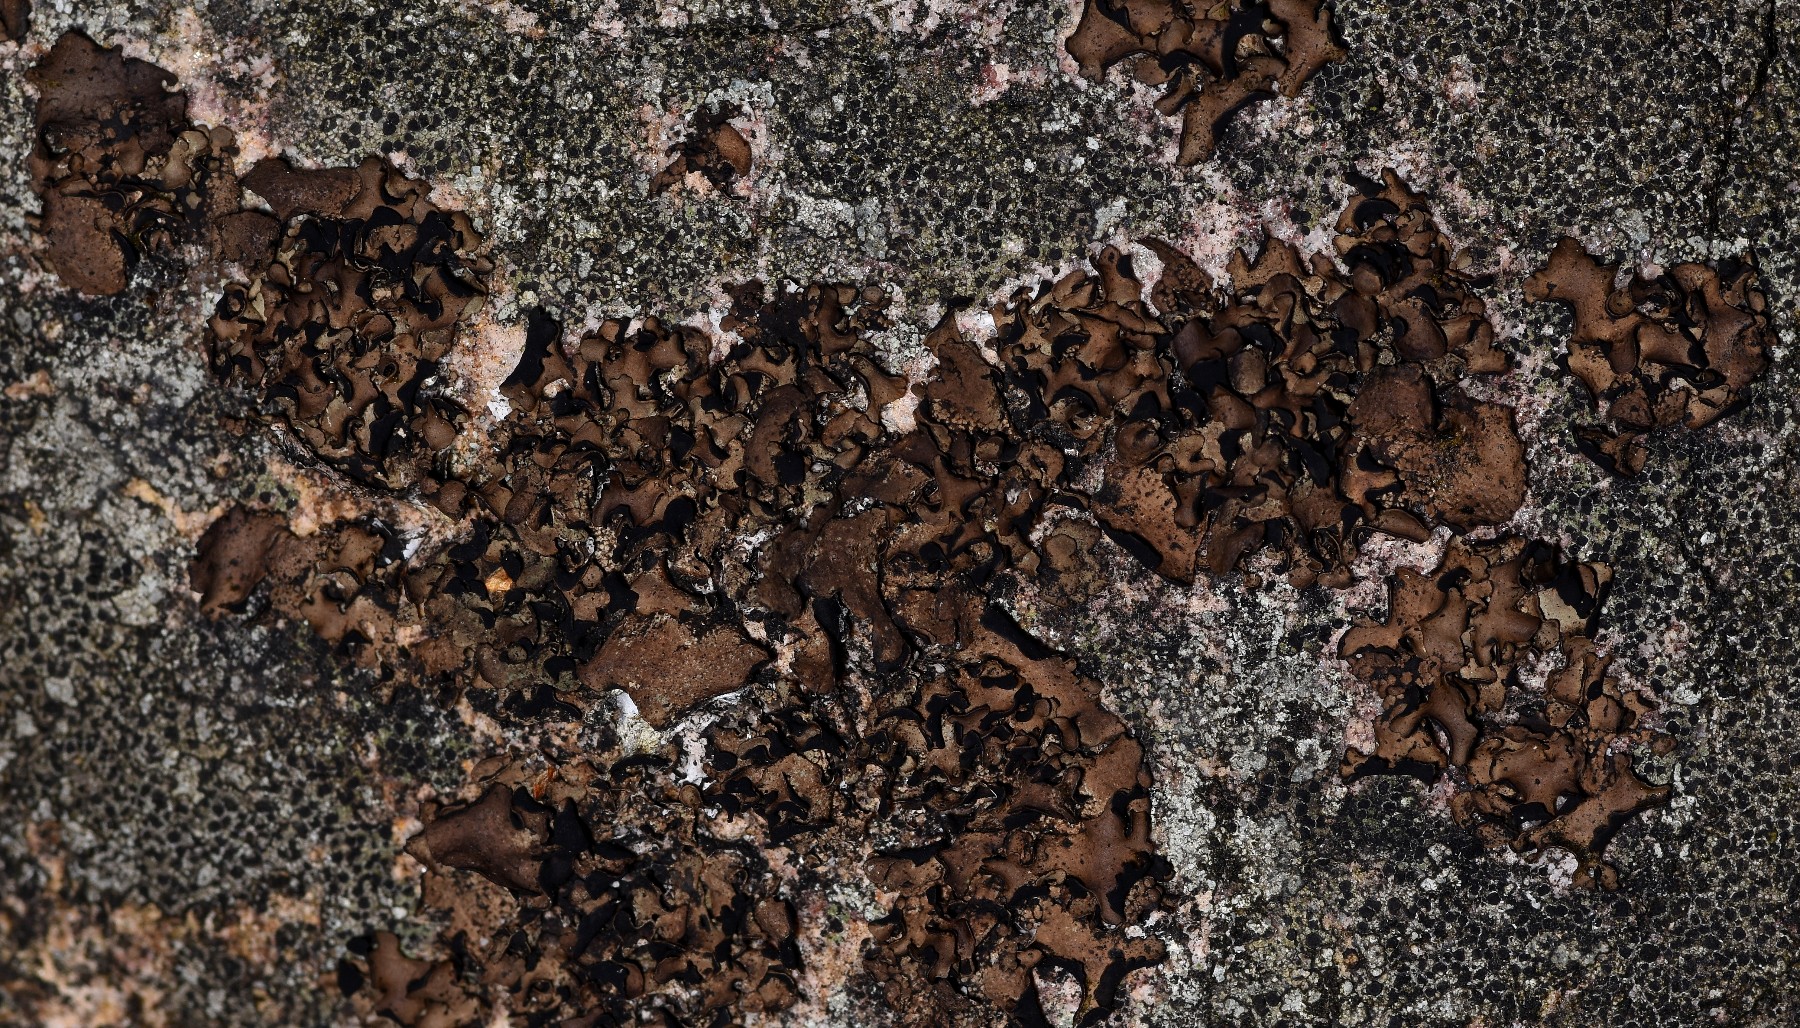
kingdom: Fungi
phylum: Ascomycota
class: Lecanoromycetes
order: Umbilicariales
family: Umbilicariaceae
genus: Umbilicaria
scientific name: Umbilicaria polyphylla
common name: glat navlelav
